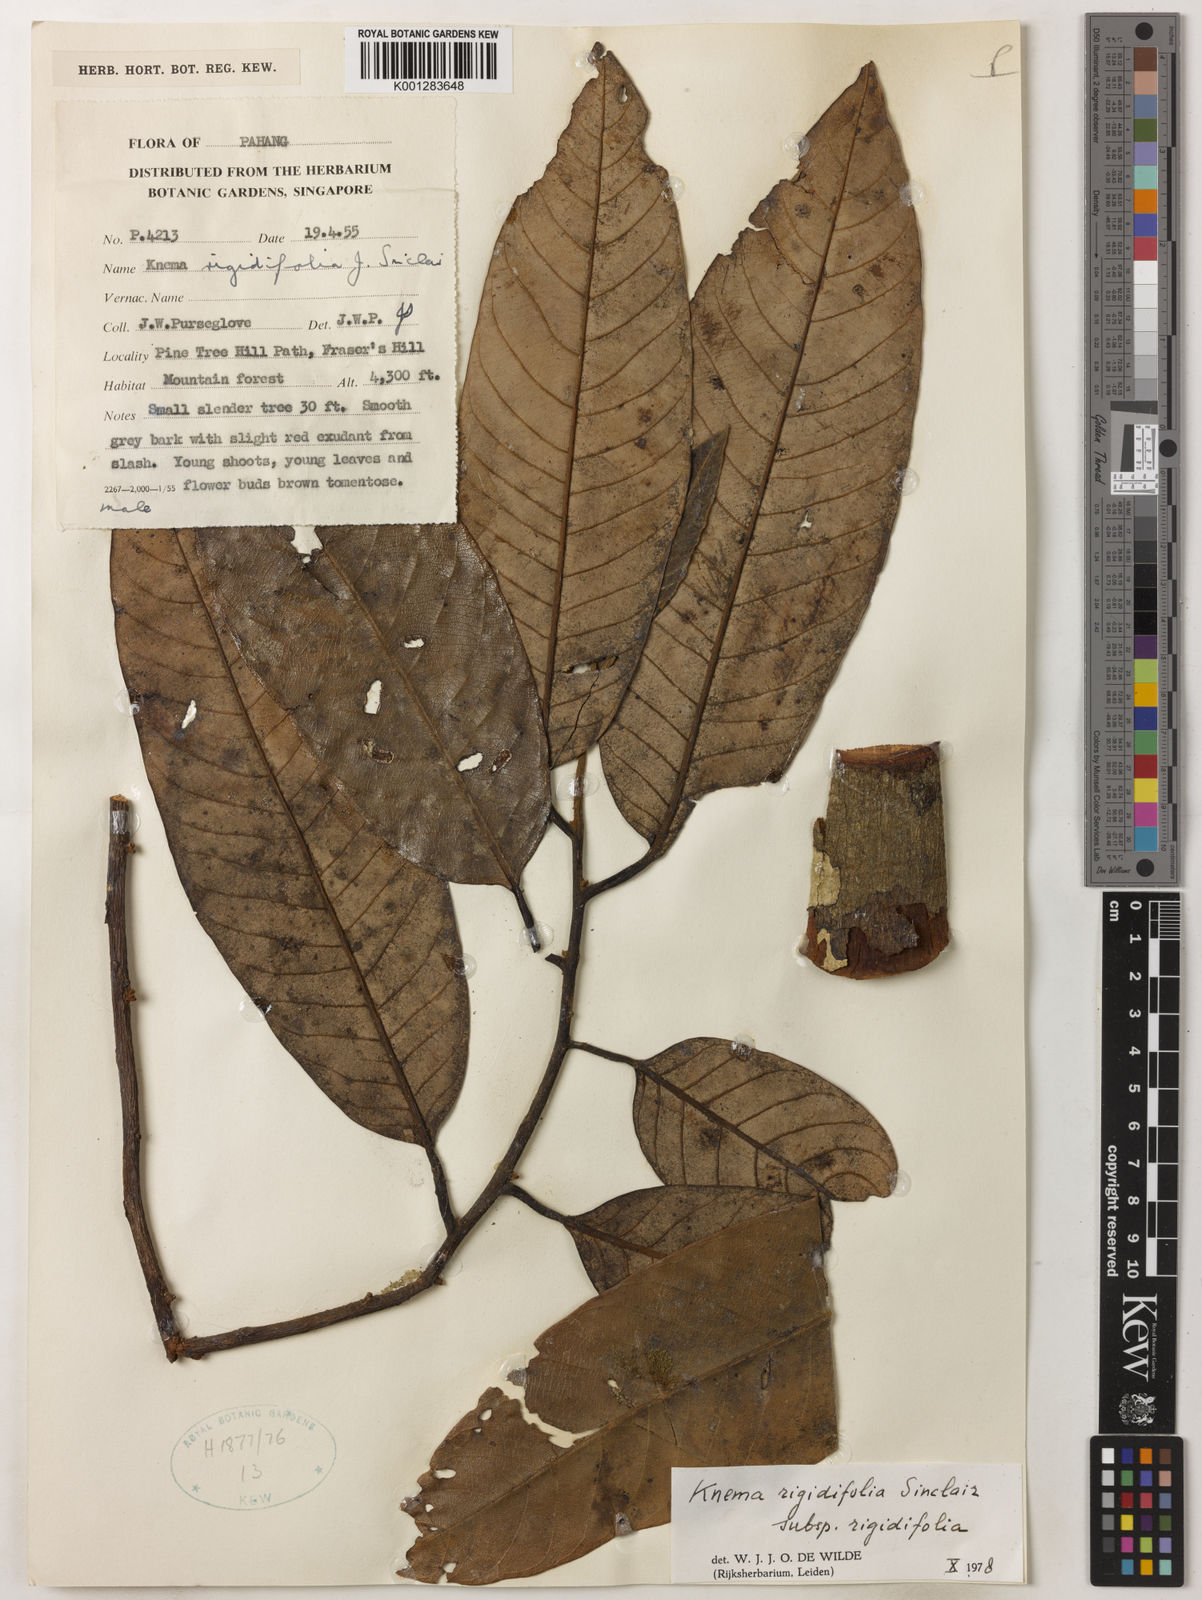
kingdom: Plantae
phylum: Tracheophyta
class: Magnoliopsida
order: Magnoliales
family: Myristicaceae
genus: Knema
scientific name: Knema rigidifolia
